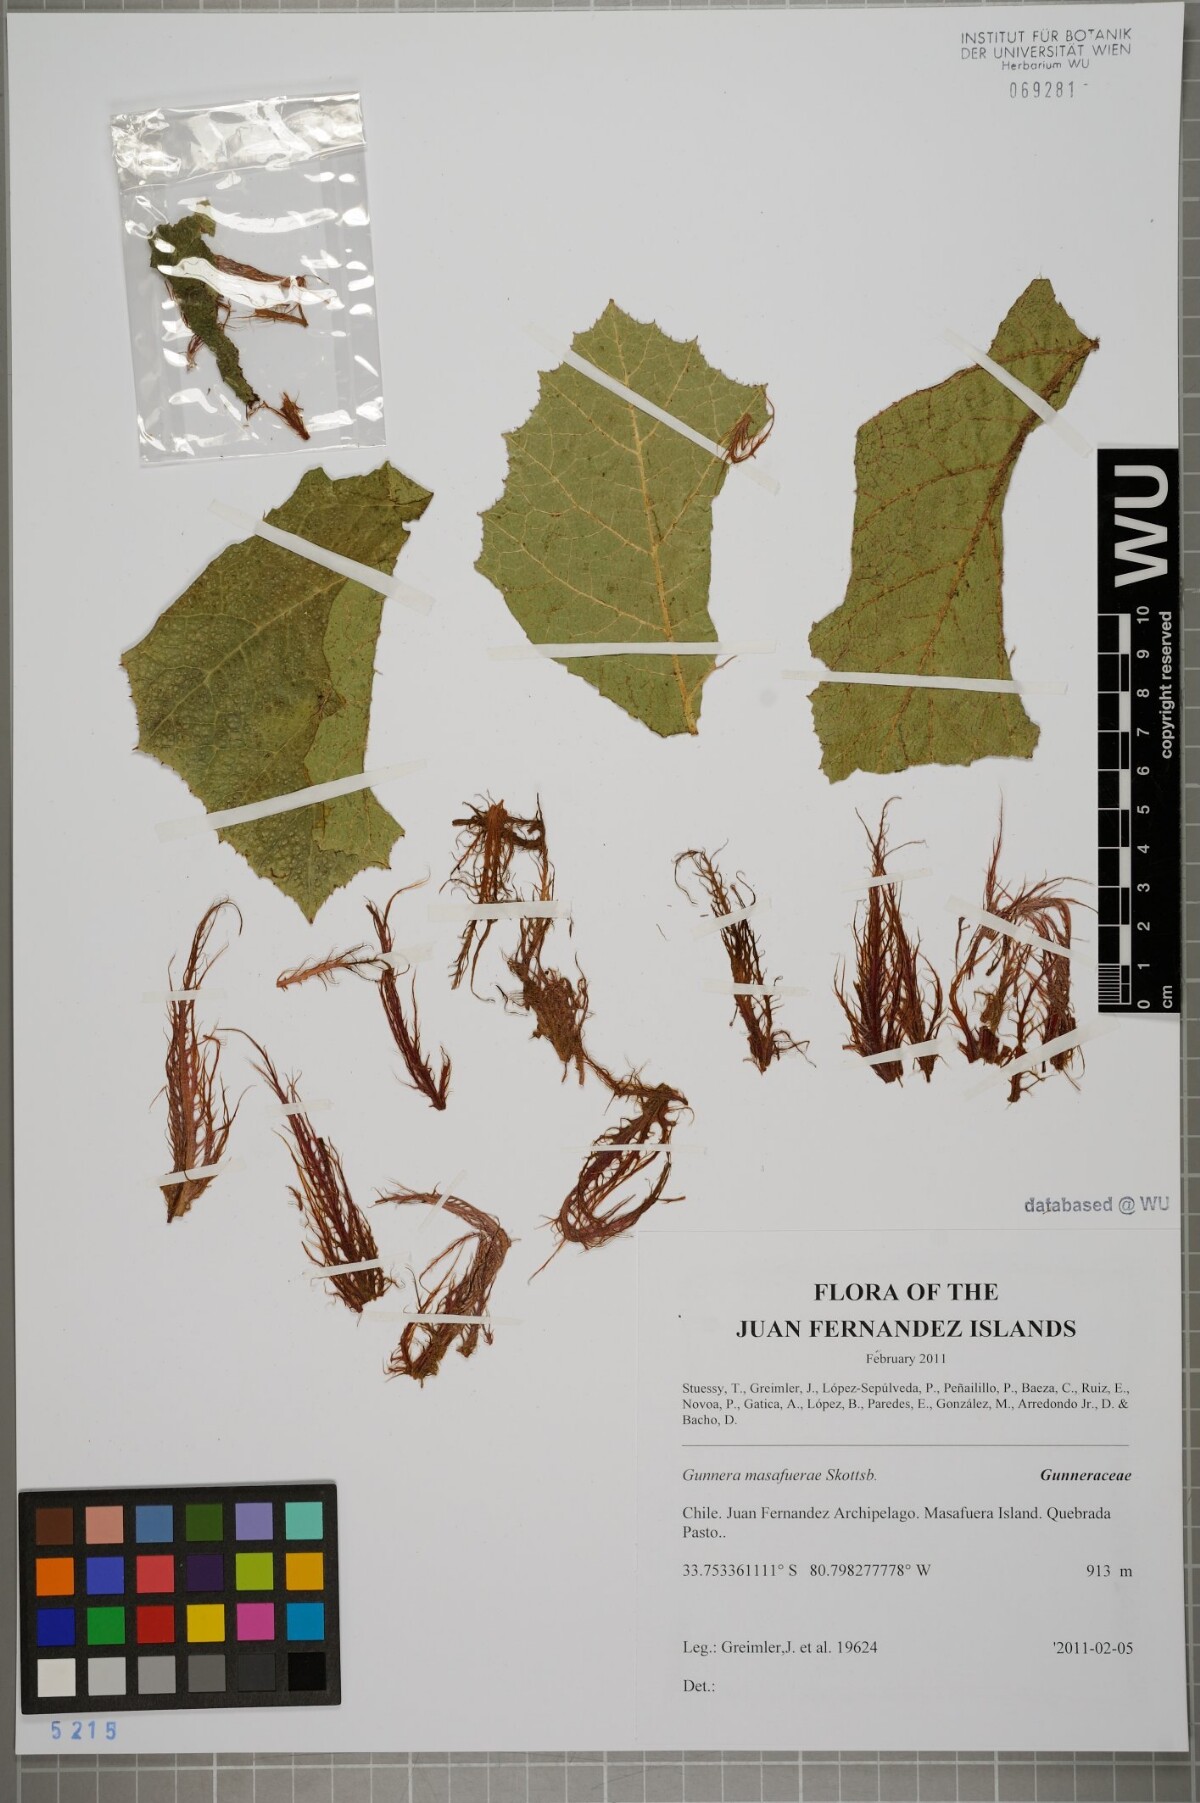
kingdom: Plantae
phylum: Tracheophyta
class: Magnoliopsida
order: Gunnerales
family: Gunneraceae
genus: Gunnera
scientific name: Gunnera masafuerae
